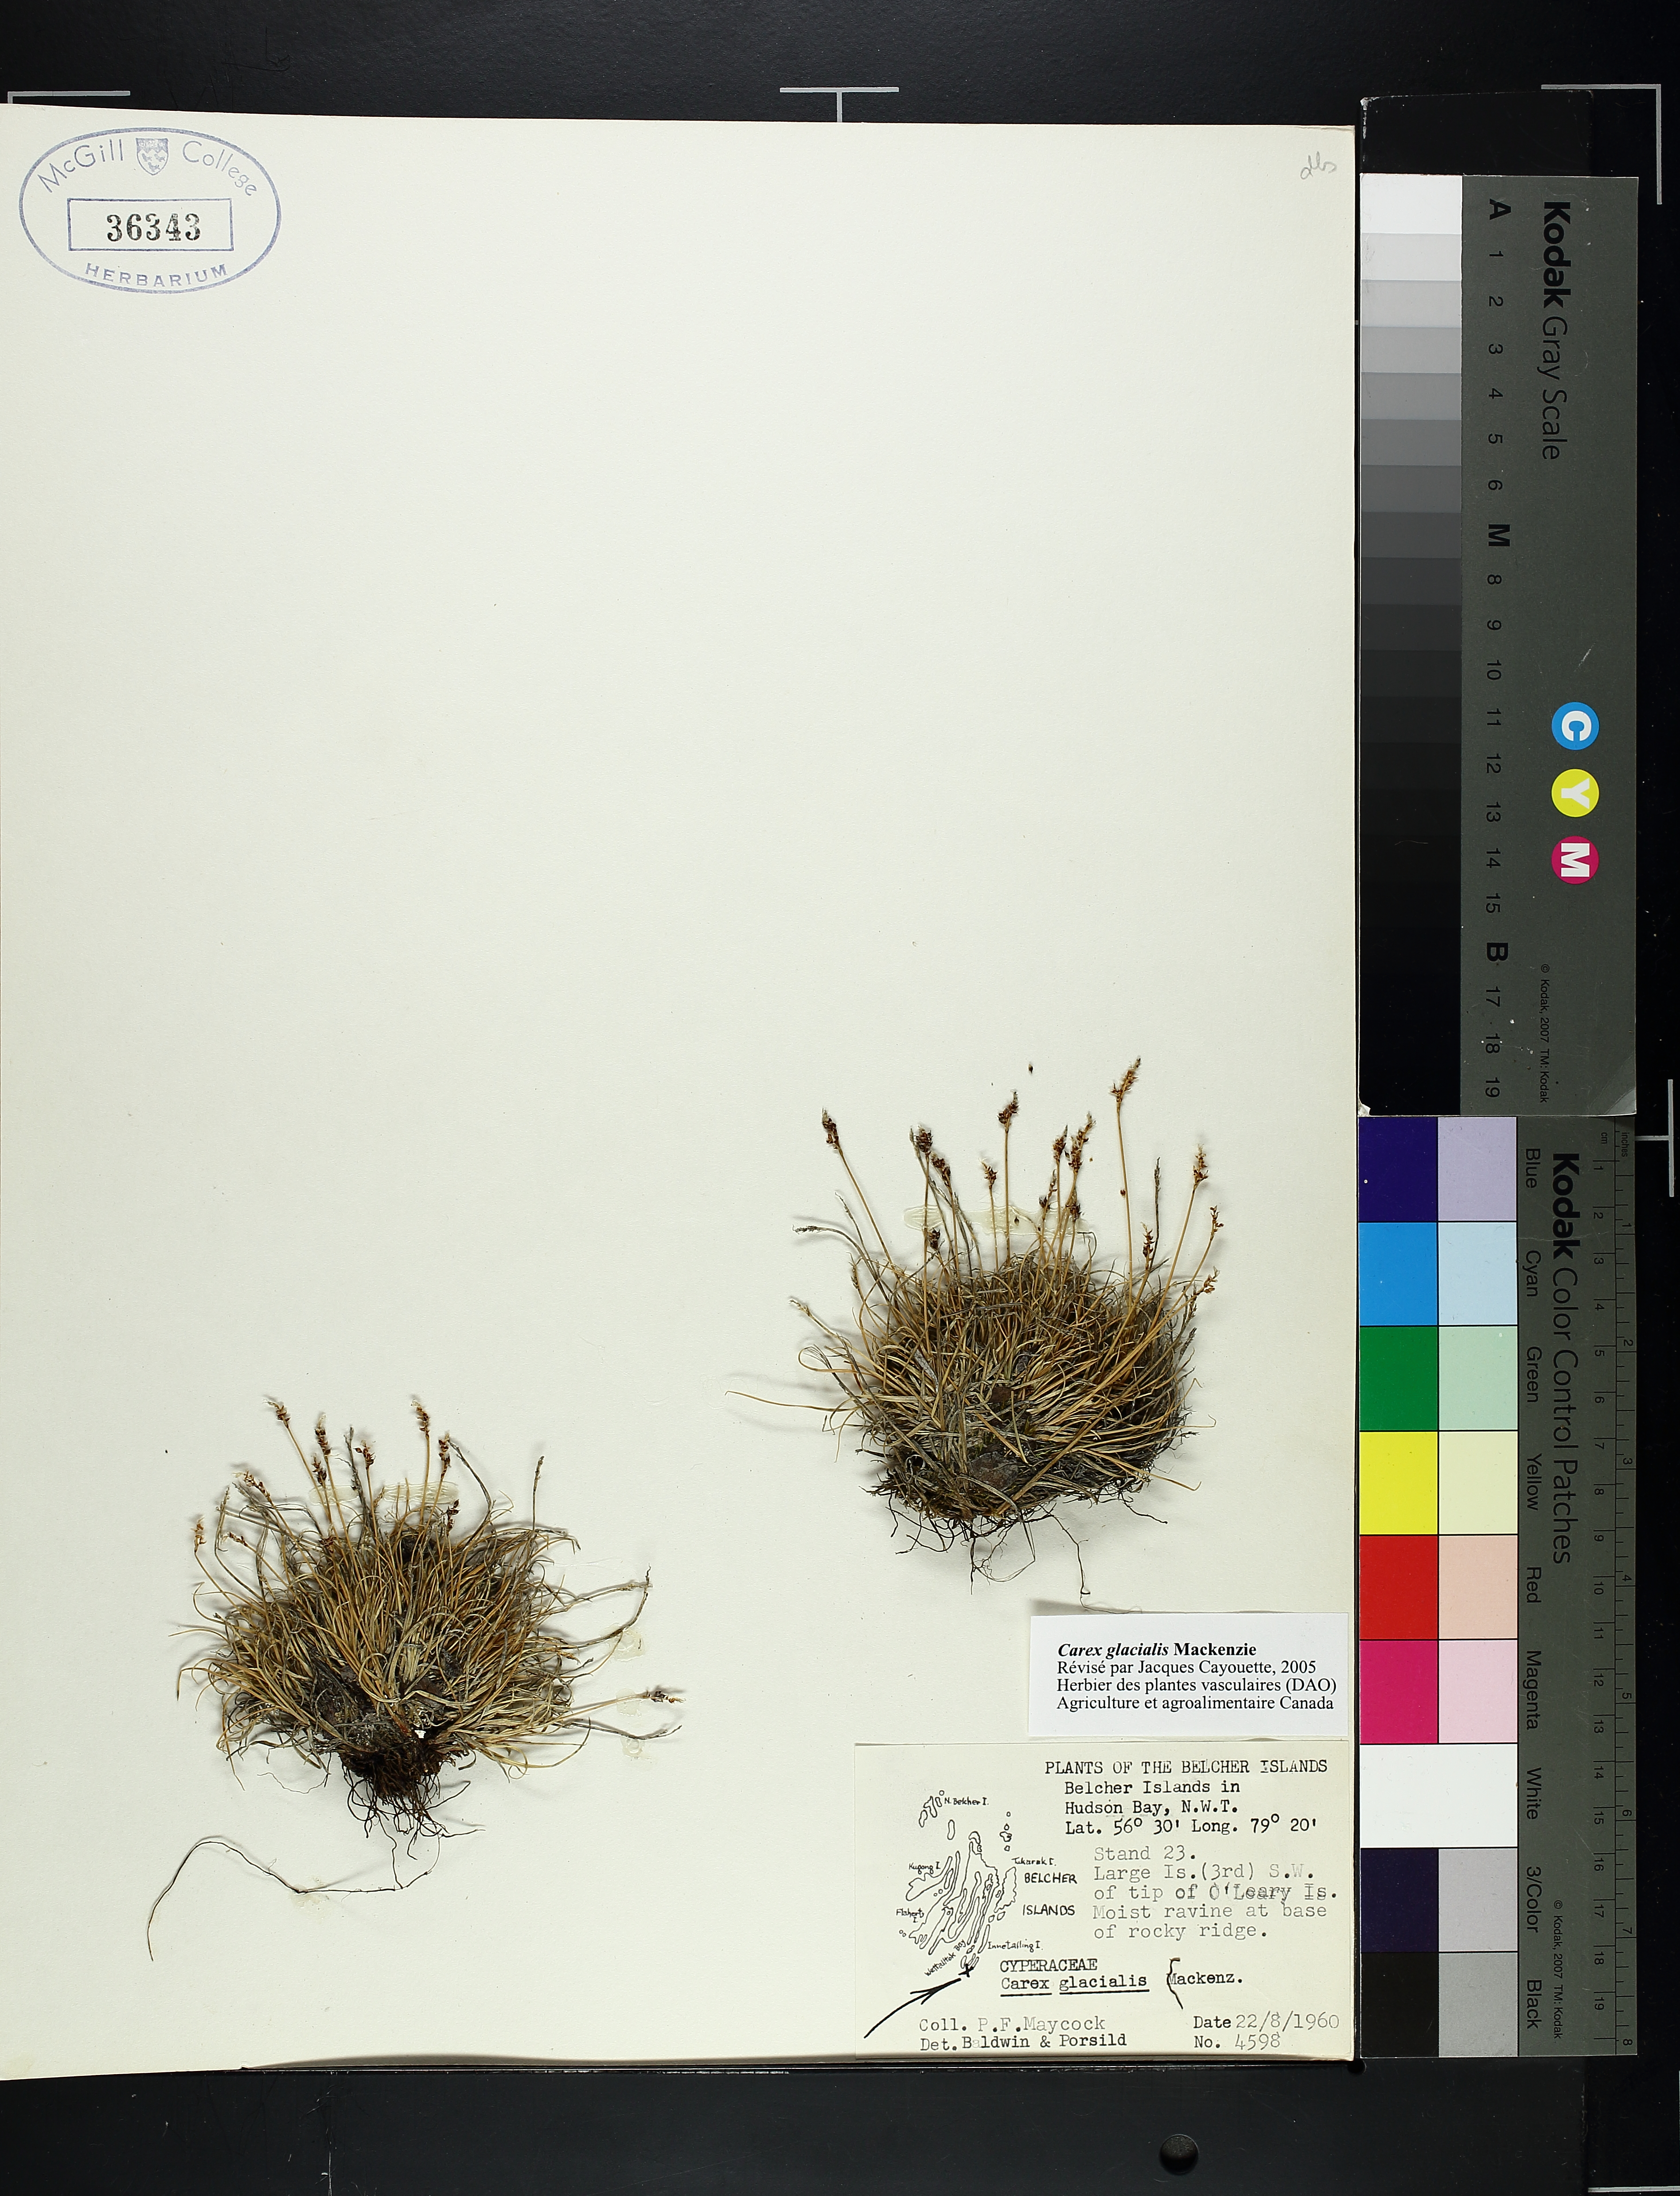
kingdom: Plantae
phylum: Tracheophyta
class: Liliopsida
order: Poales
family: Cyperaceae
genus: Carex
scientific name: Carex glacialis
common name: Newfoundland sedge
